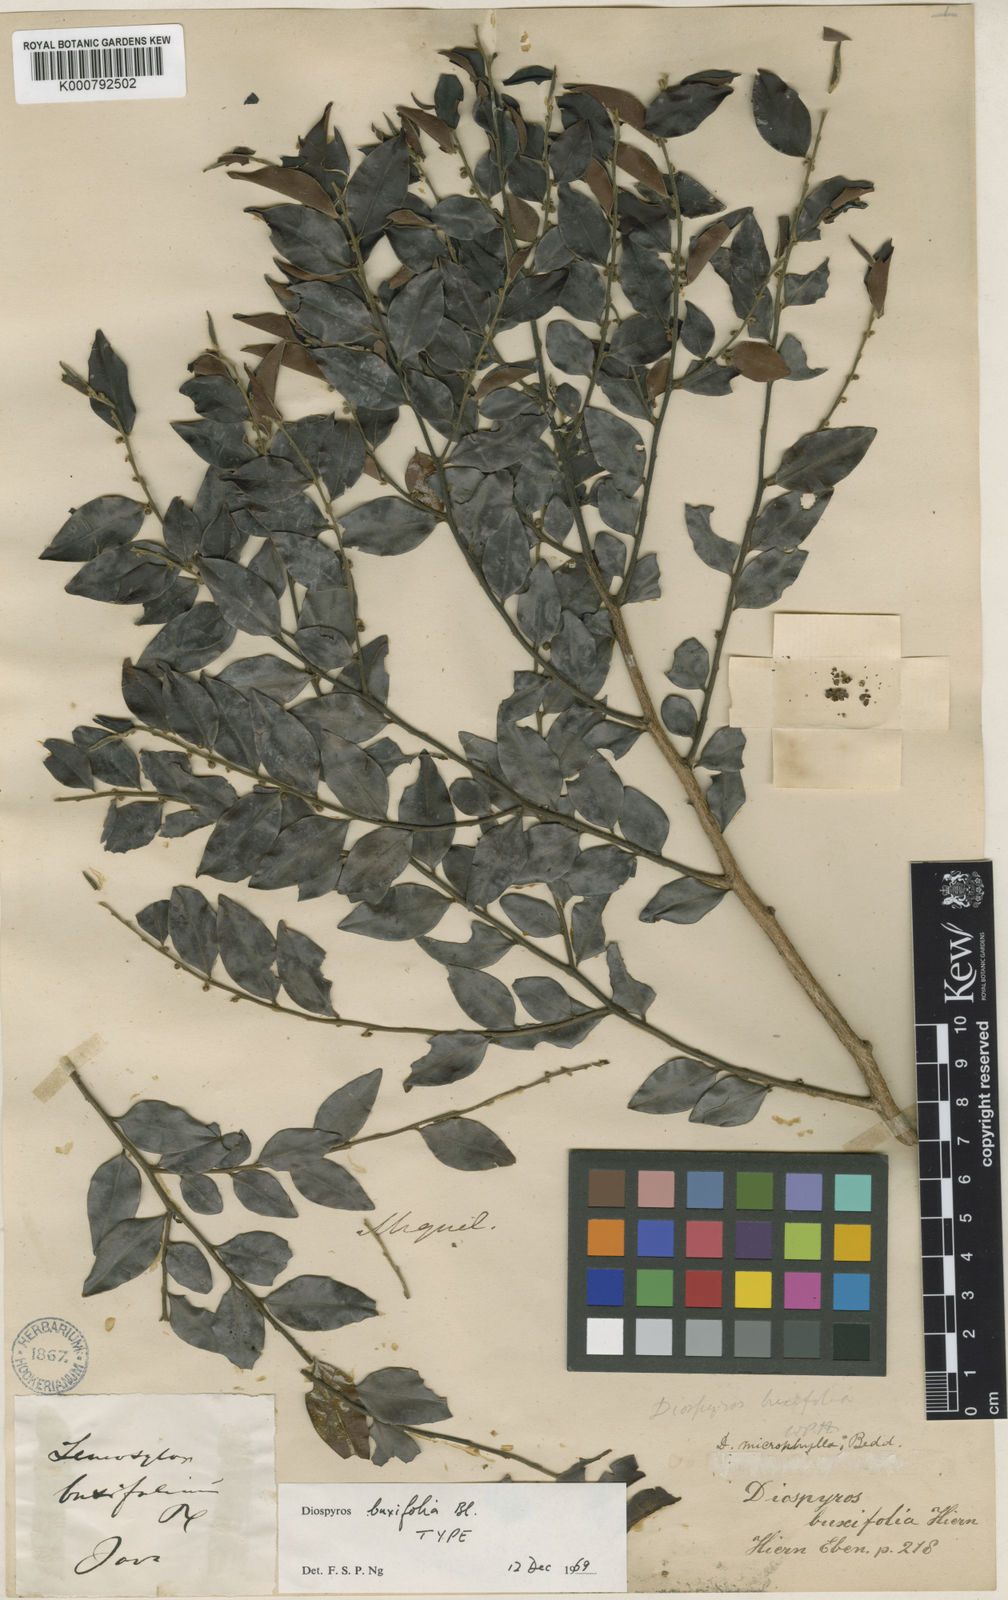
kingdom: Plantae
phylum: Tracheophyta
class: Magnoliopsida
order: Ericales
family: Ebenaceae
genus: Diospyros
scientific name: Diospyros buxifolia
